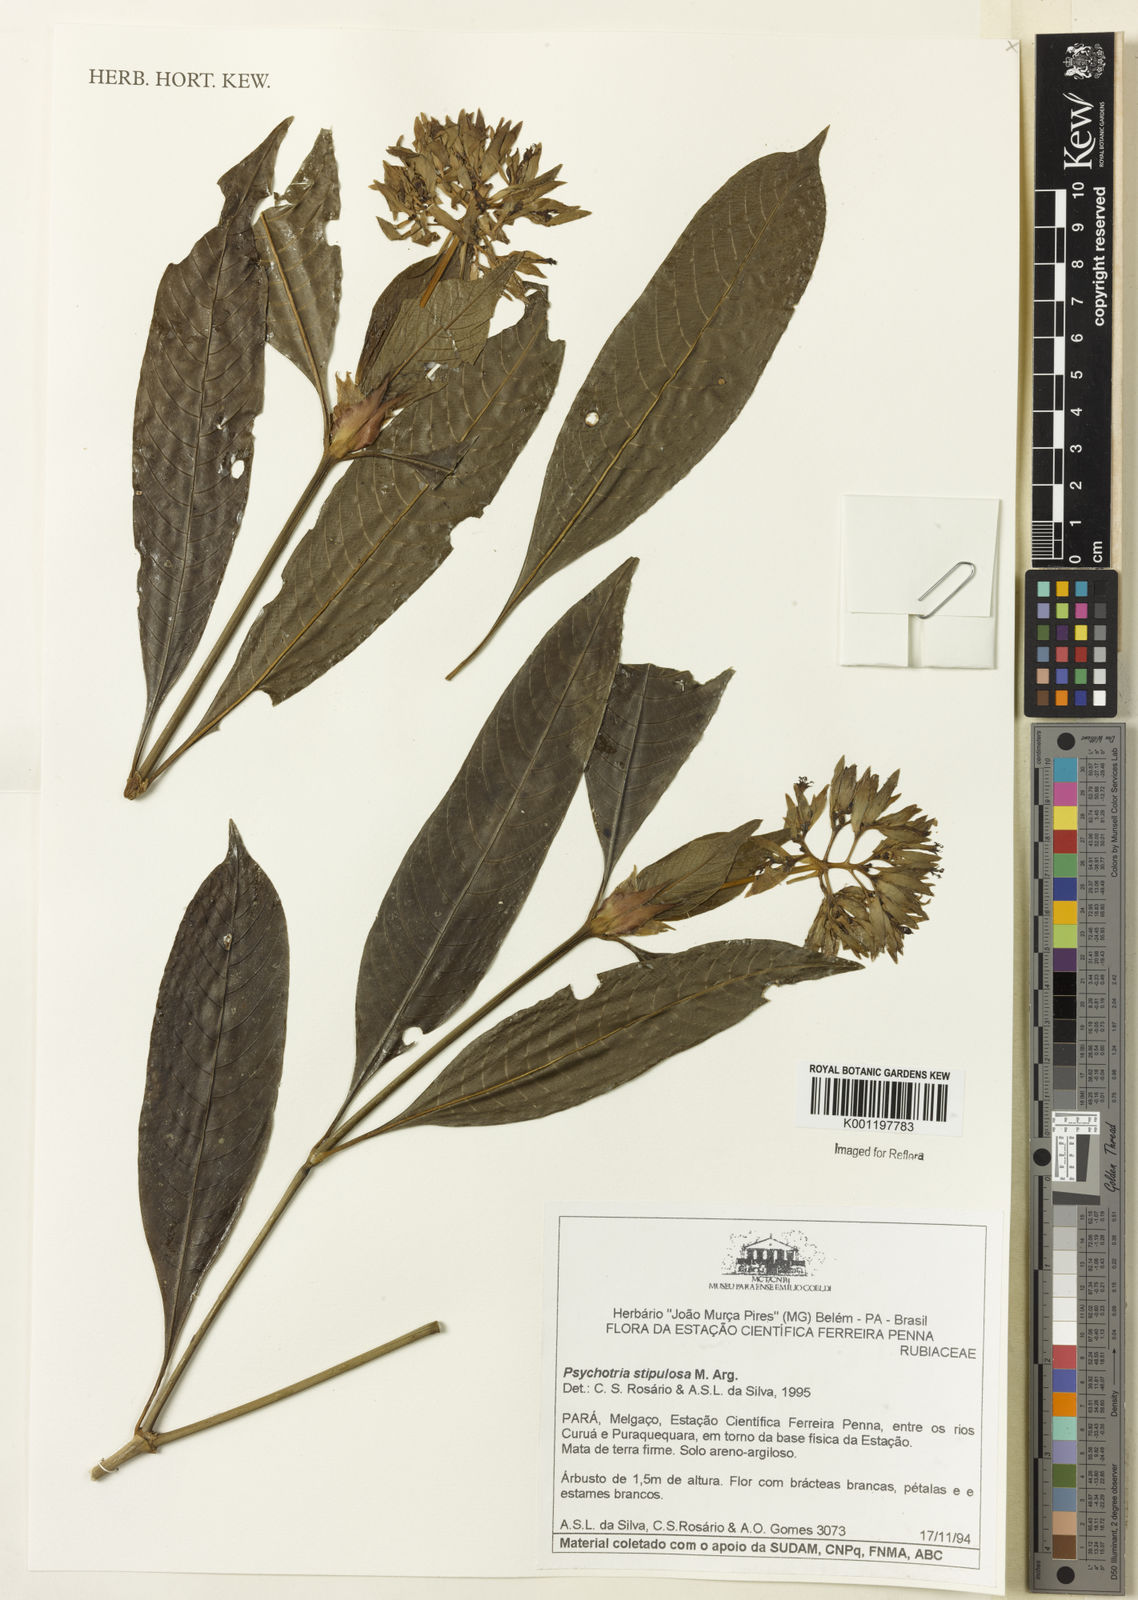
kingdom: Plantae
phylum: Tracheophyta
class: Magnoliopsida
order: Gentianales
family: Rubiaceae
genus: Psychotria
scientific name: Psychotria
